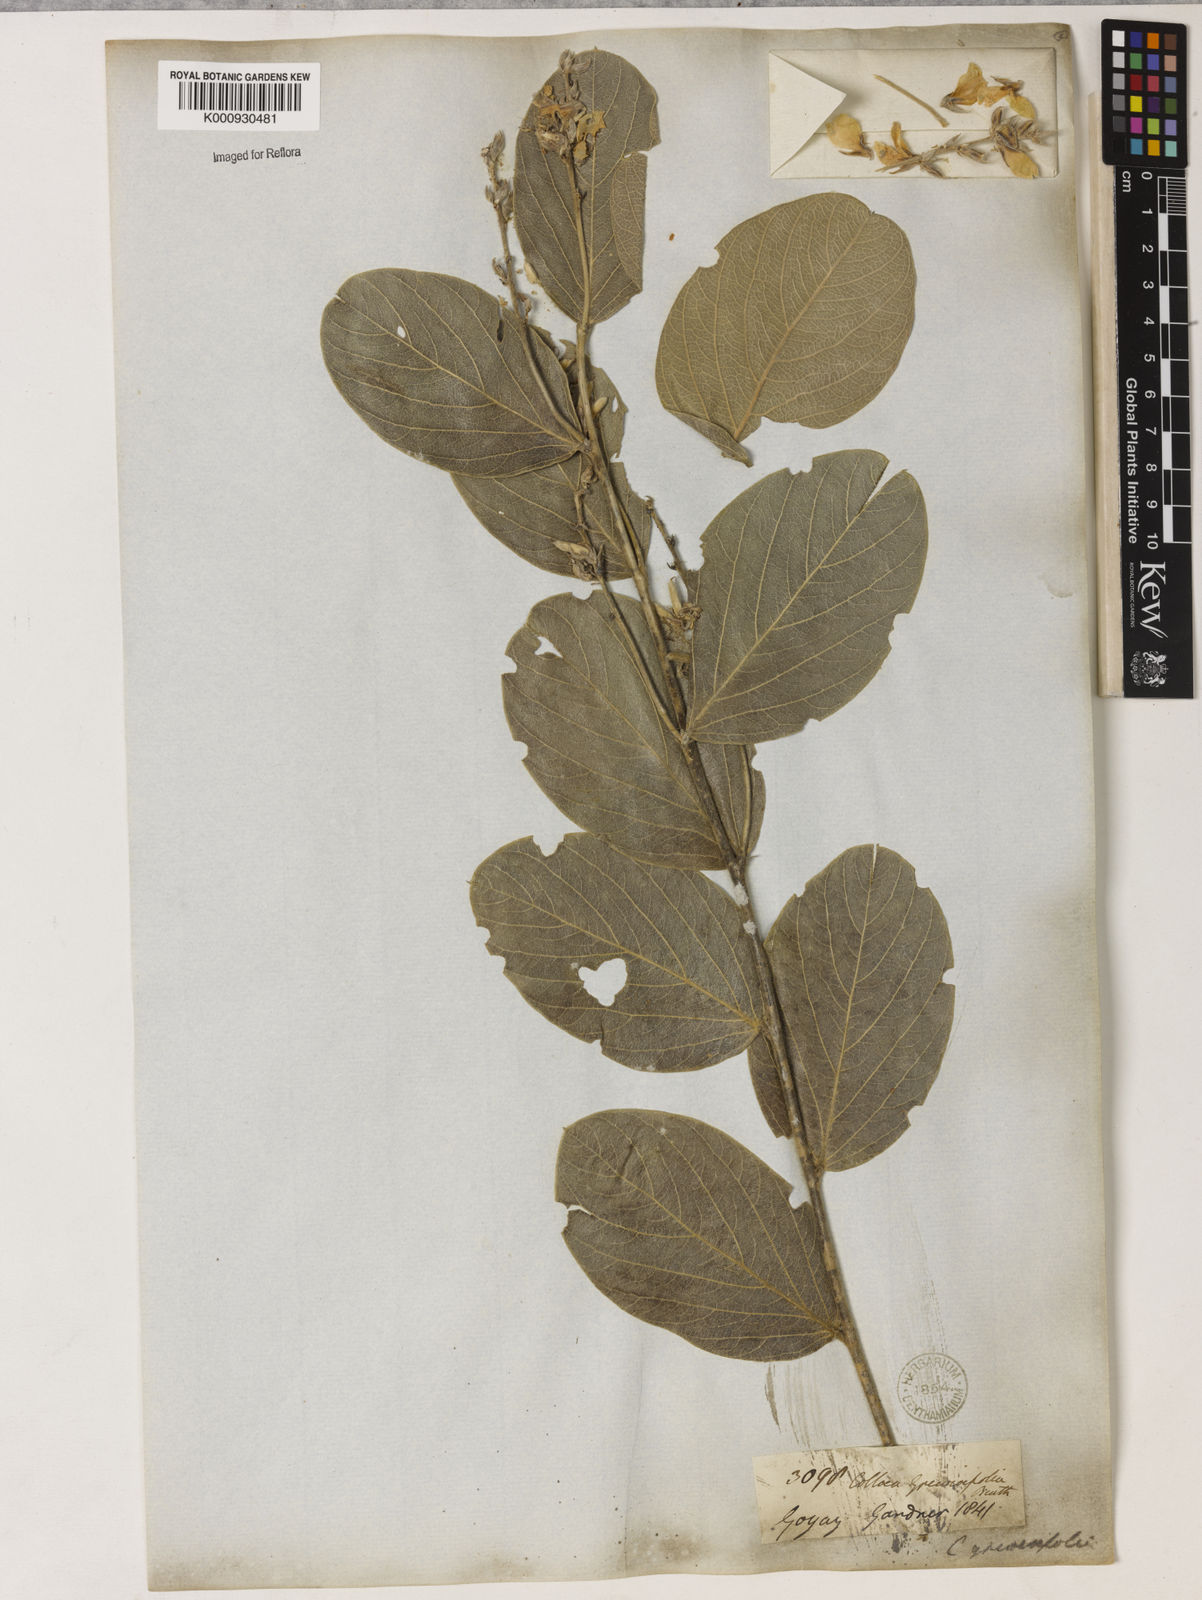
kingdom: Plantae
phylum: Tracheophyta
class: Magnoliopsida
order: Fabales
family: Fabaceae
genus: Galactia
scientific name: Galactia
